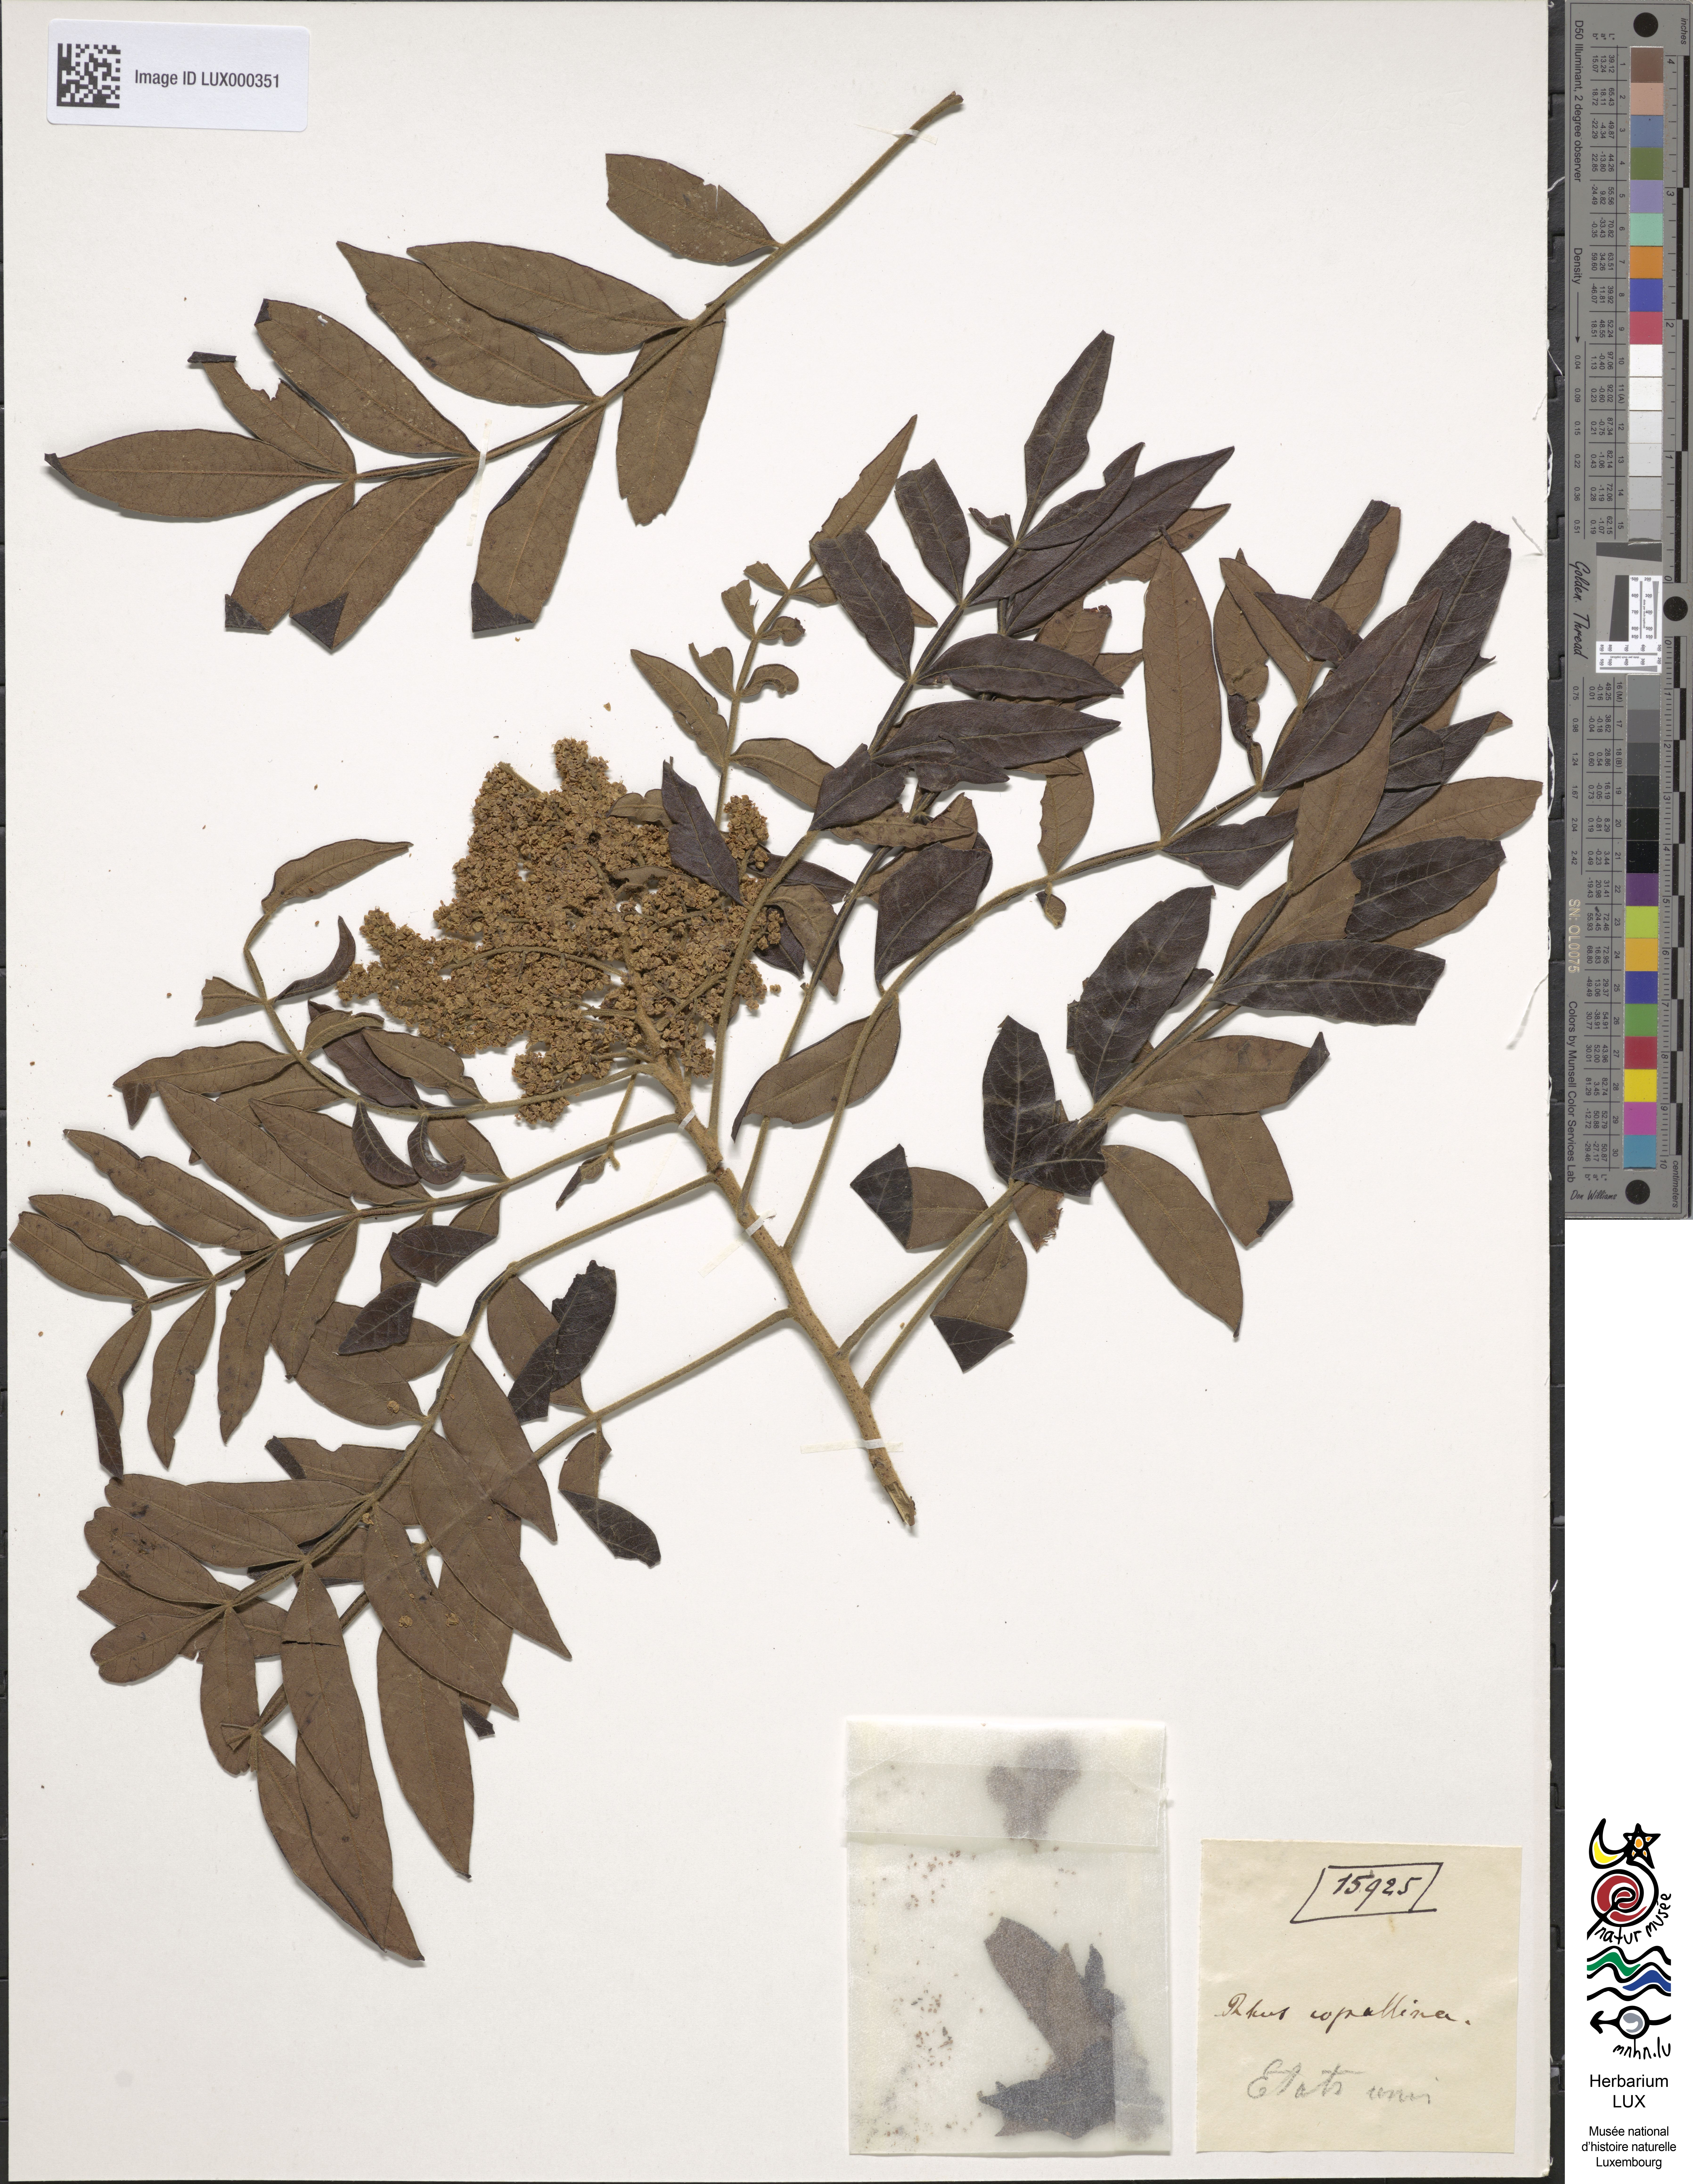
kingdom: Plantae
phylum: Tracheophyta
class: Magnoliopsida
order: Sapindales
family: Anacardiaceae
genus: Rhus
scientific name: Rhus copallina
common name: Shining sumac
